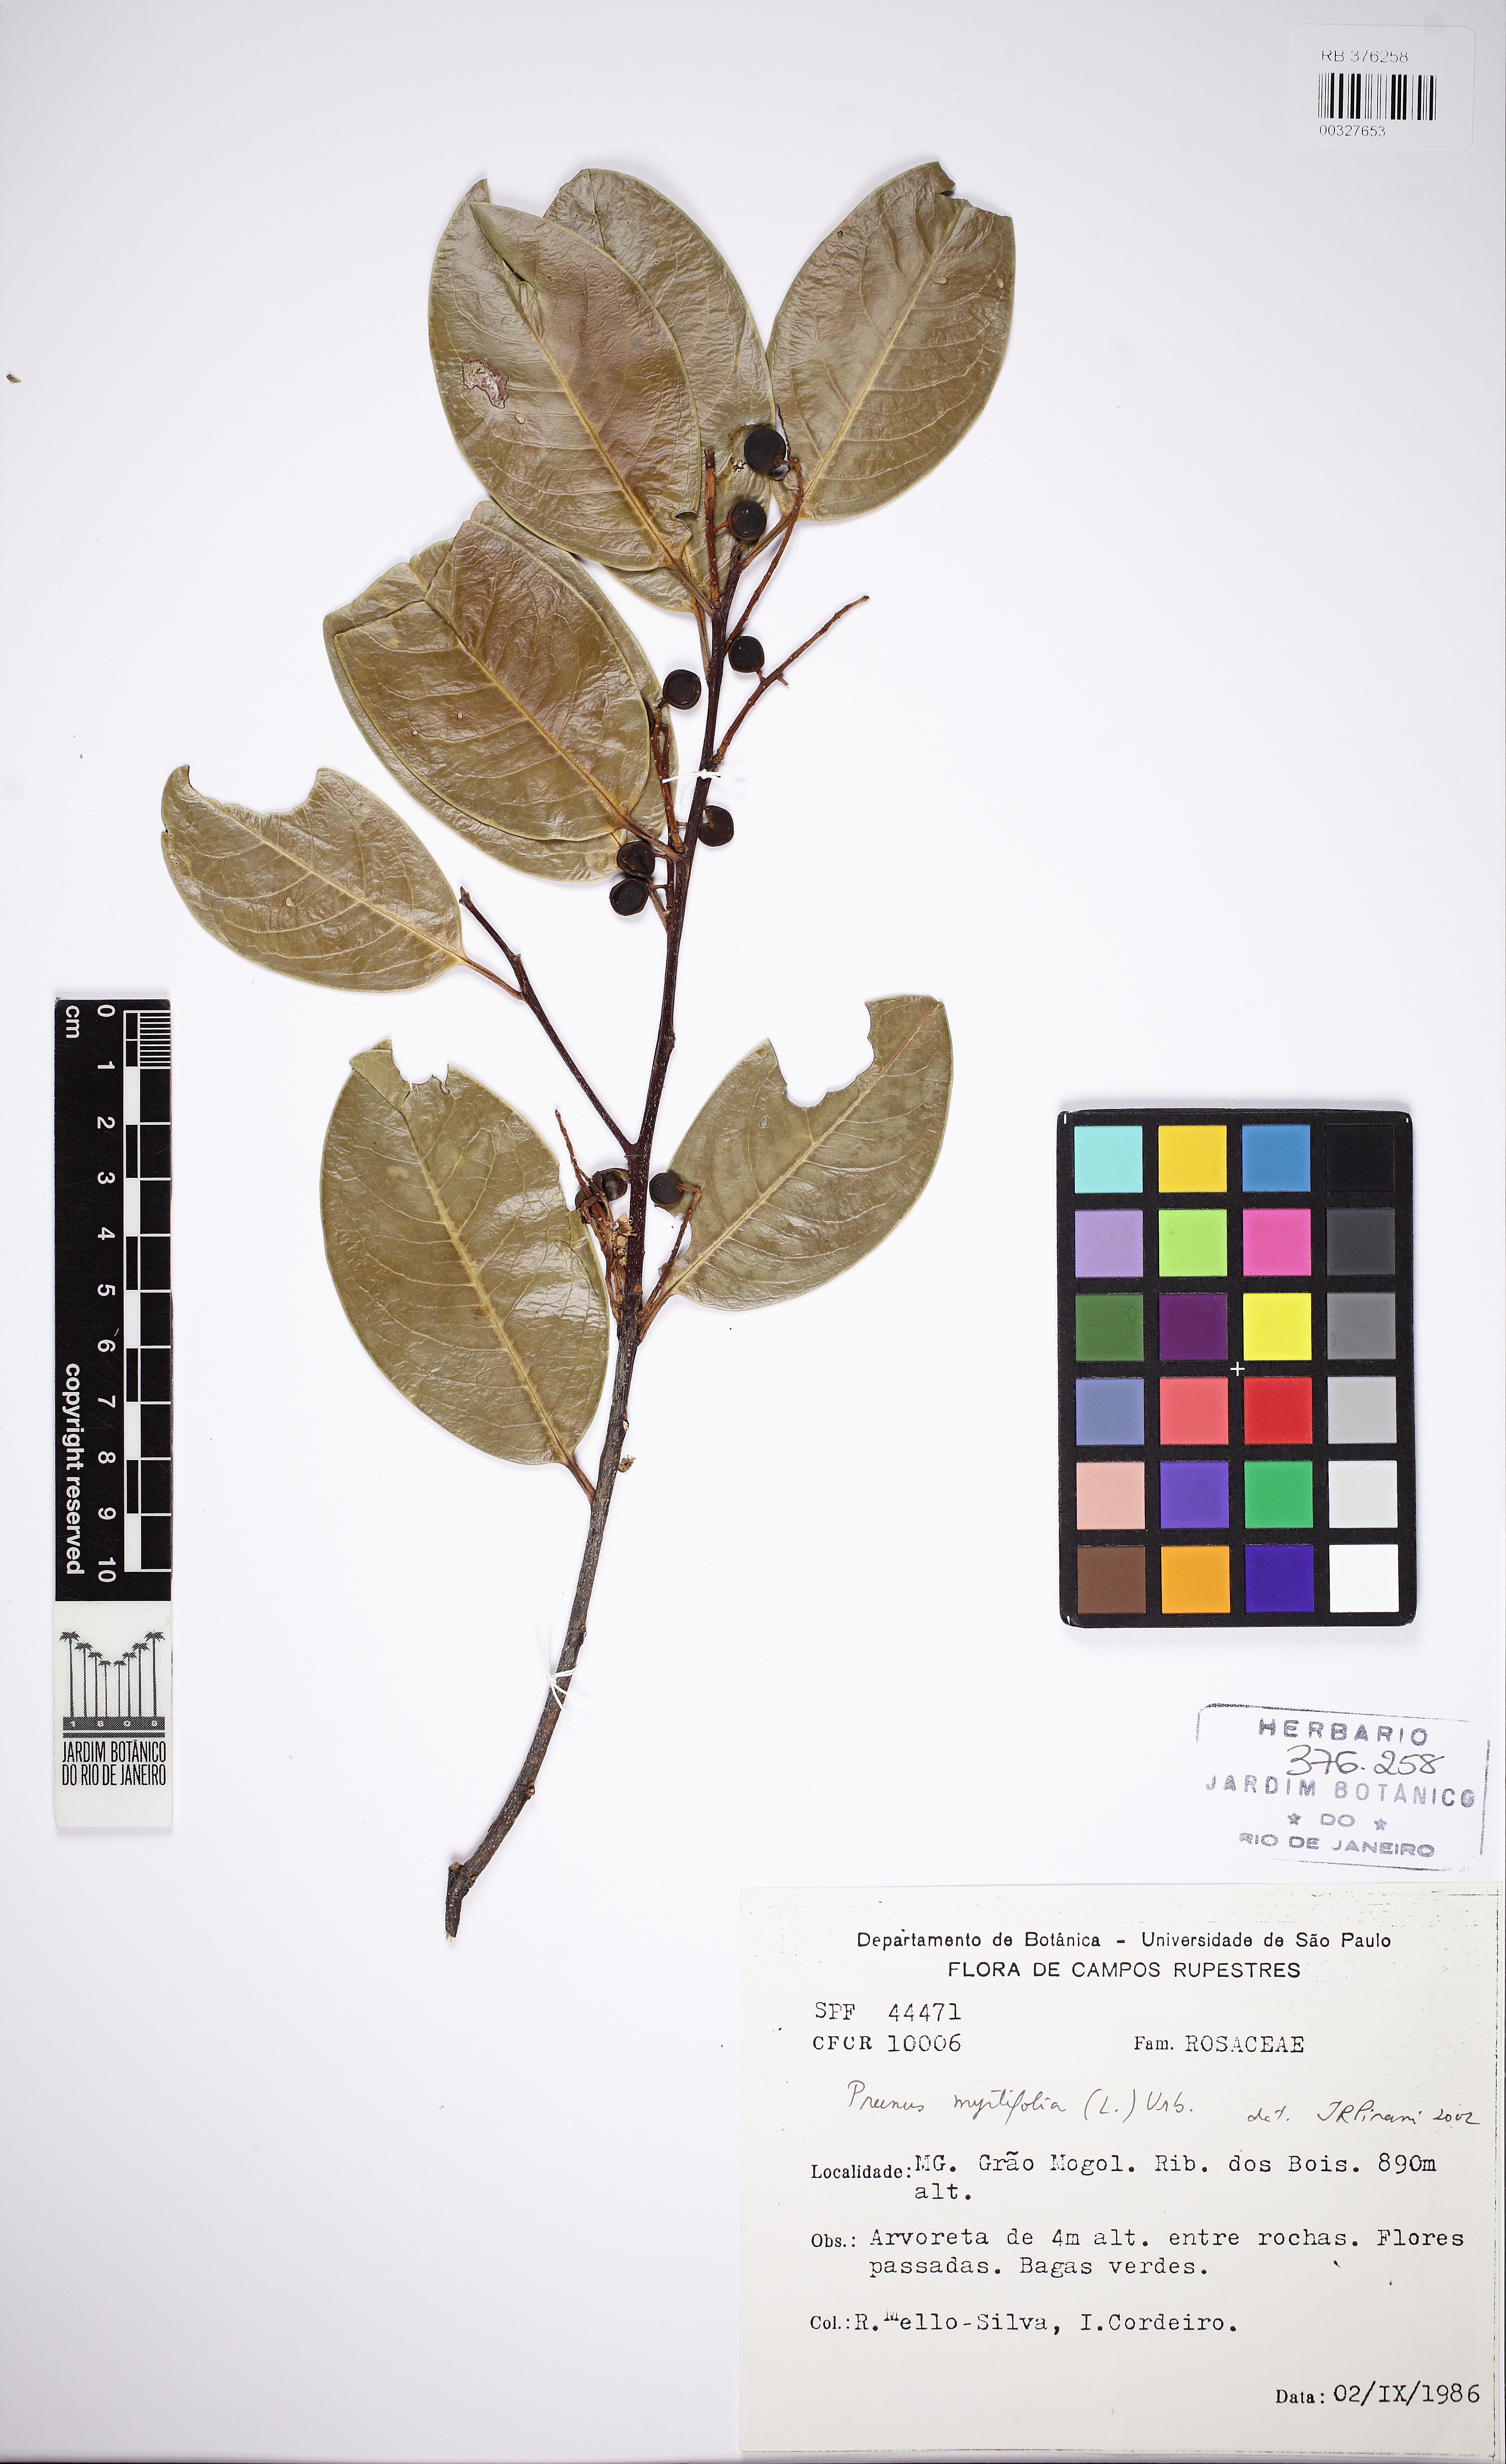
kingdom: Plantae
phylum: Tracheophyta
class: Magnoliopsida
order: Rosales
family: Rosaceae
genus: Prunus
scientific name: Prunus myrtifolia
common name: West indies cherry
